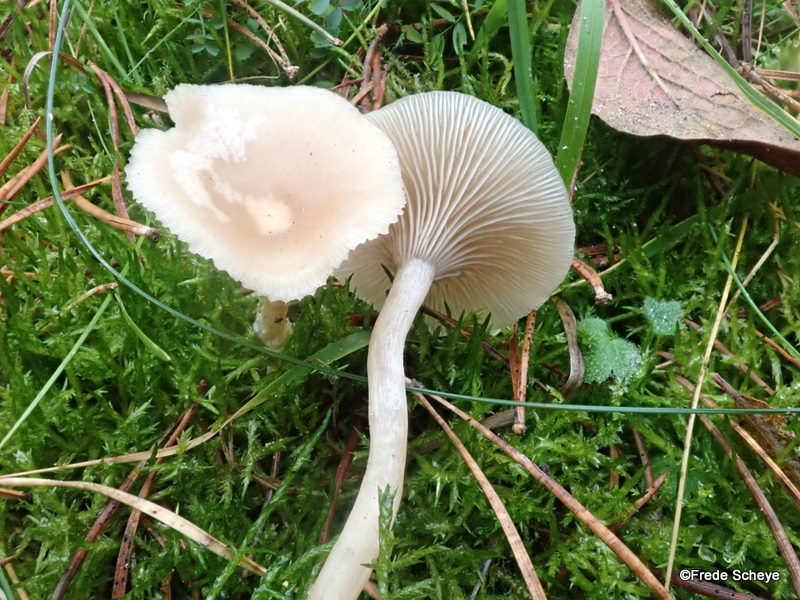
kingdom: Fungi
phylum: Basidiomycota
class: Agaricomycetes
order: Agaricales
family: Tricholomataceae
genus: Clitocybe
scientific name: Clitocybe fragrans
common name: vellugtende tragthat
